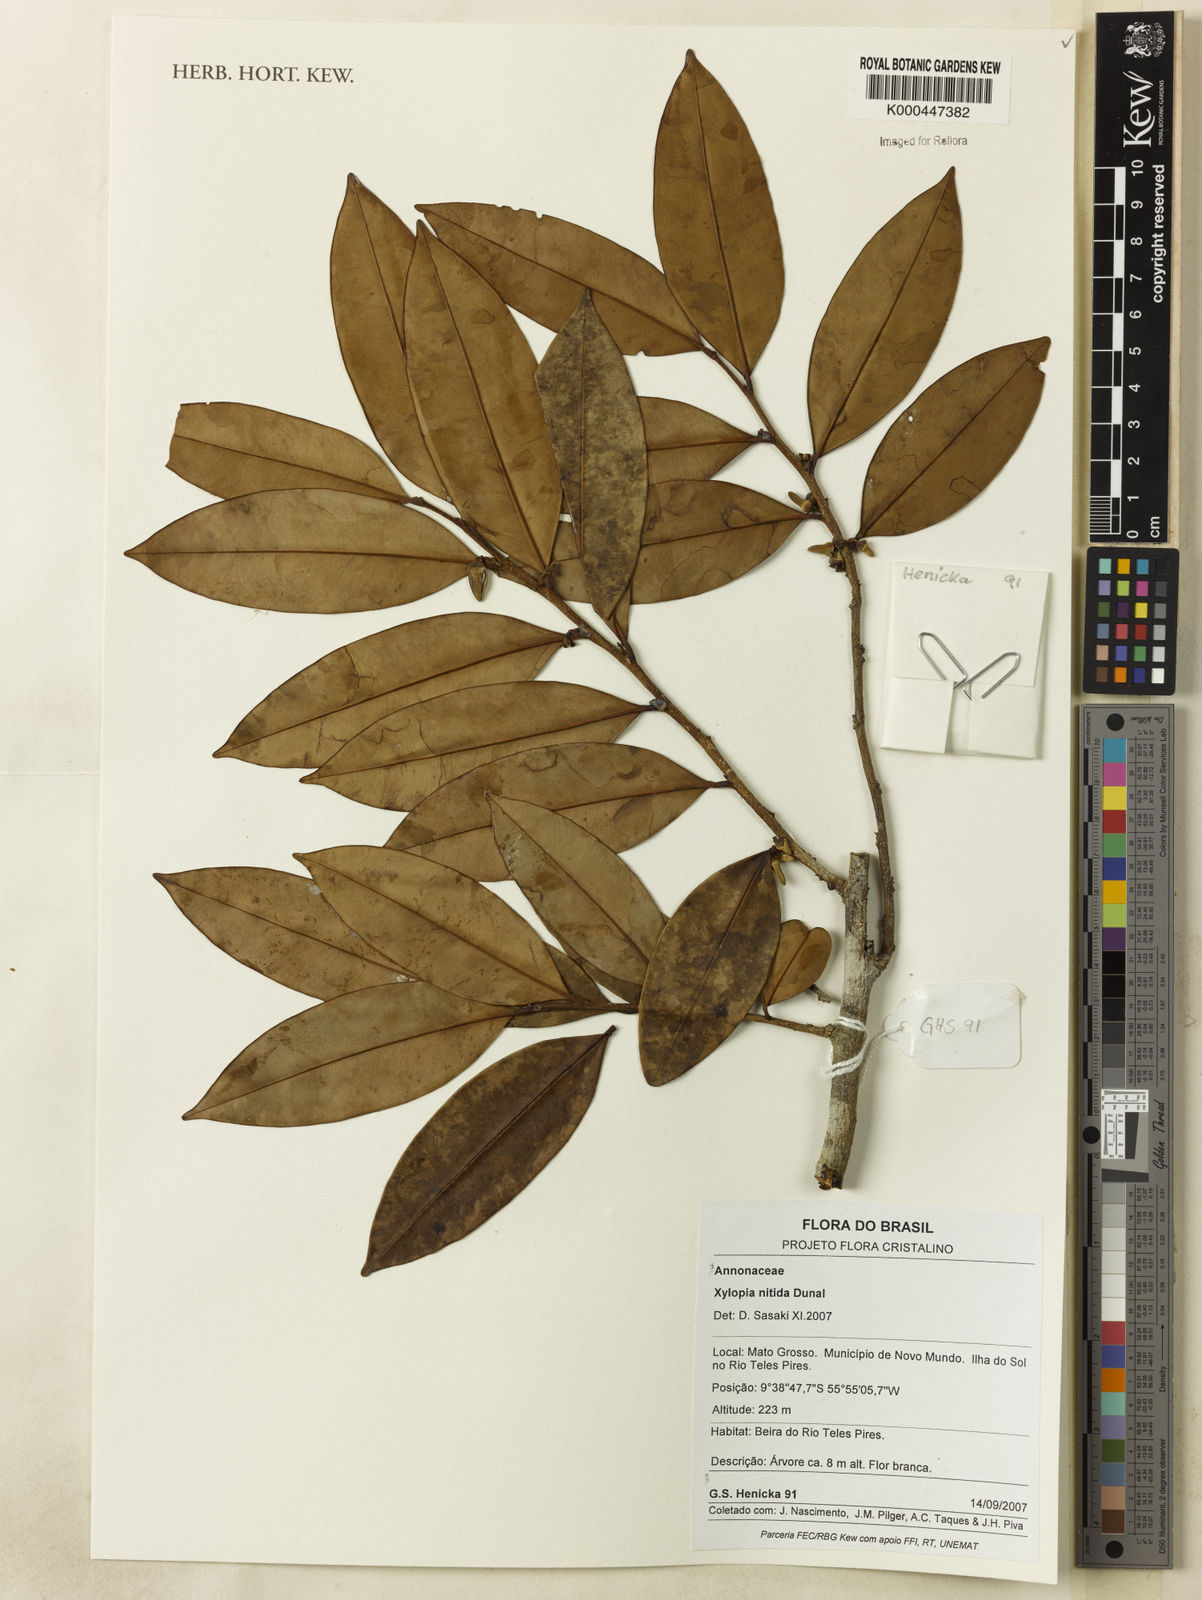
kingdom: Plantae
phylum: Tracheophyta
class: Magnoliopsida
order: Magnoliales
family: Annonaceae
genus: Xylopia
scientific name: Xylopia nitida
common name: White kuyama
